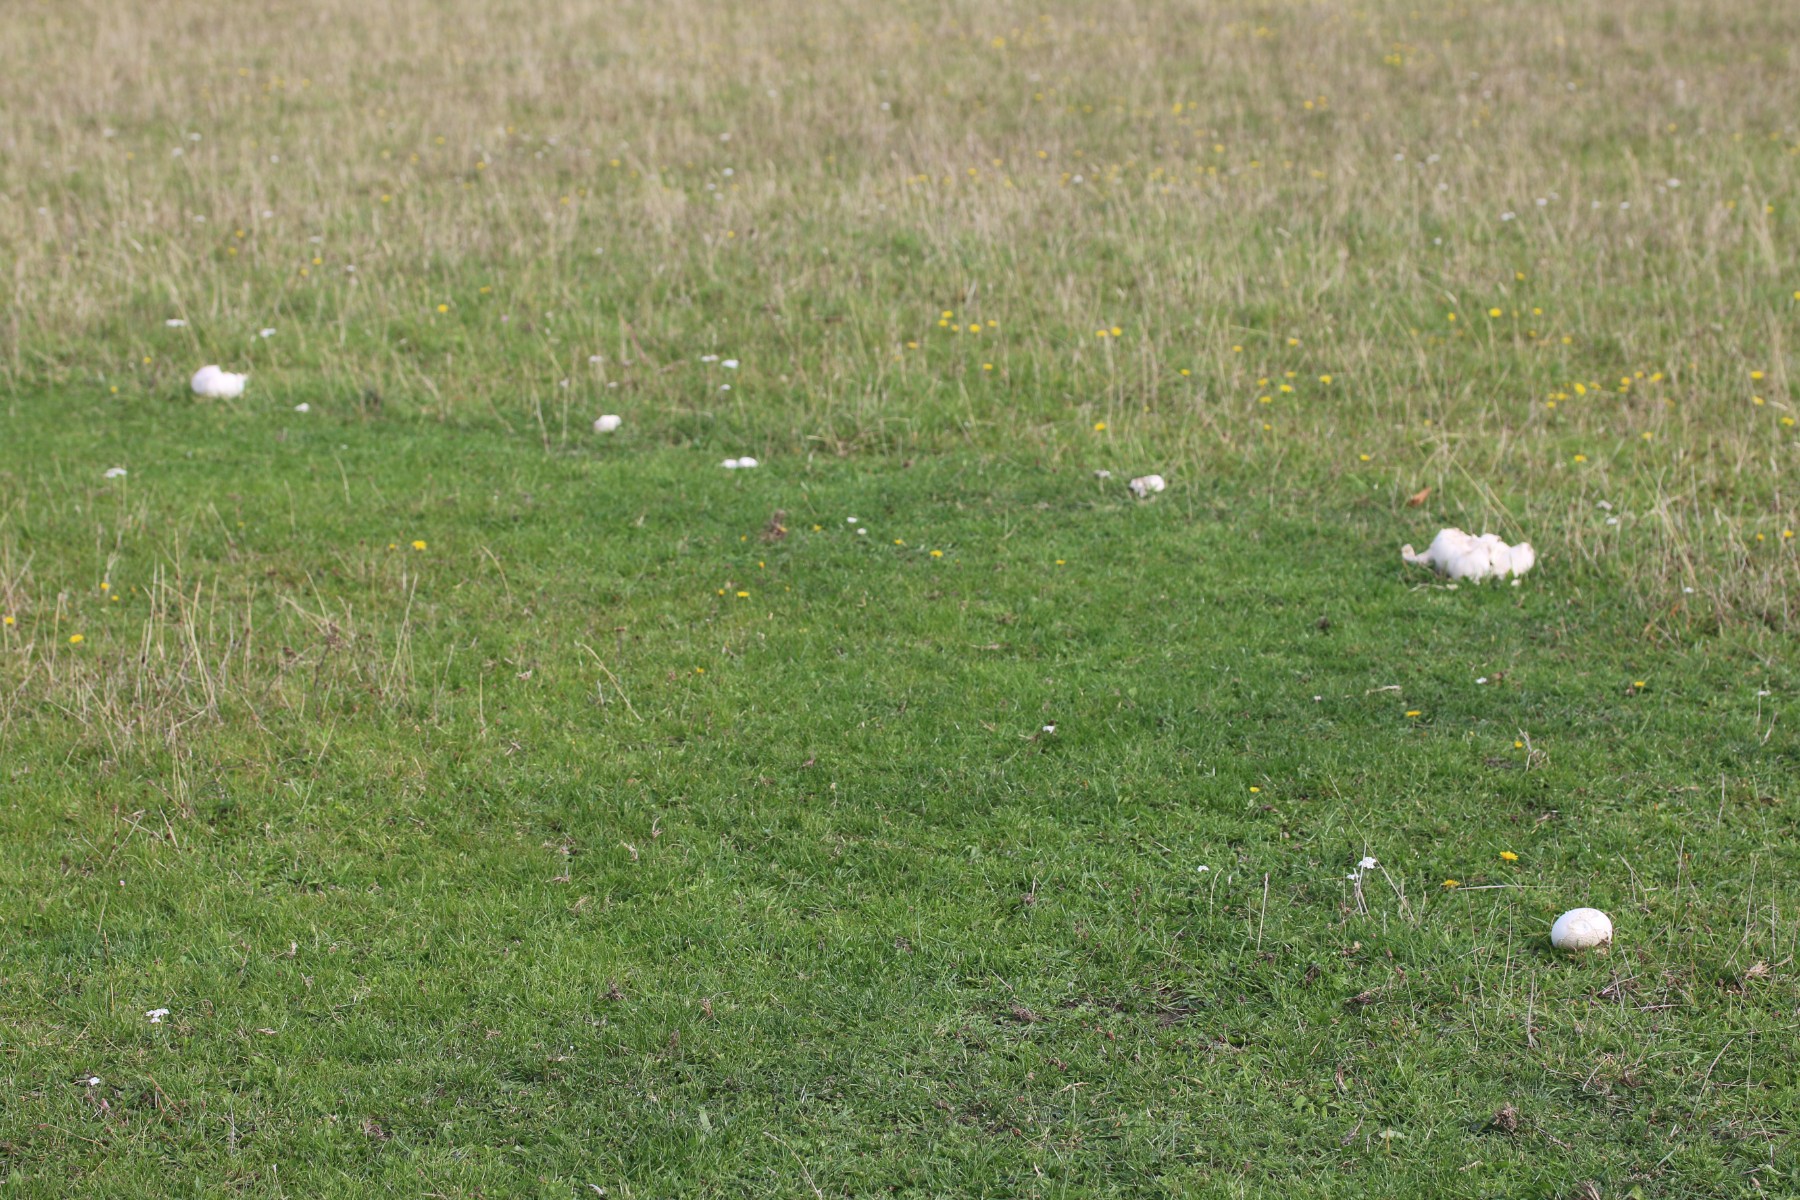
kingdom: Fungi
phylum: Basidiomycota
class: Agaricomycetes
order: Agaricales
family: Lycoperdaceae
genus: Calvatia
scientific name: Calvatia gigantea
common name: kæmpestøvbold
